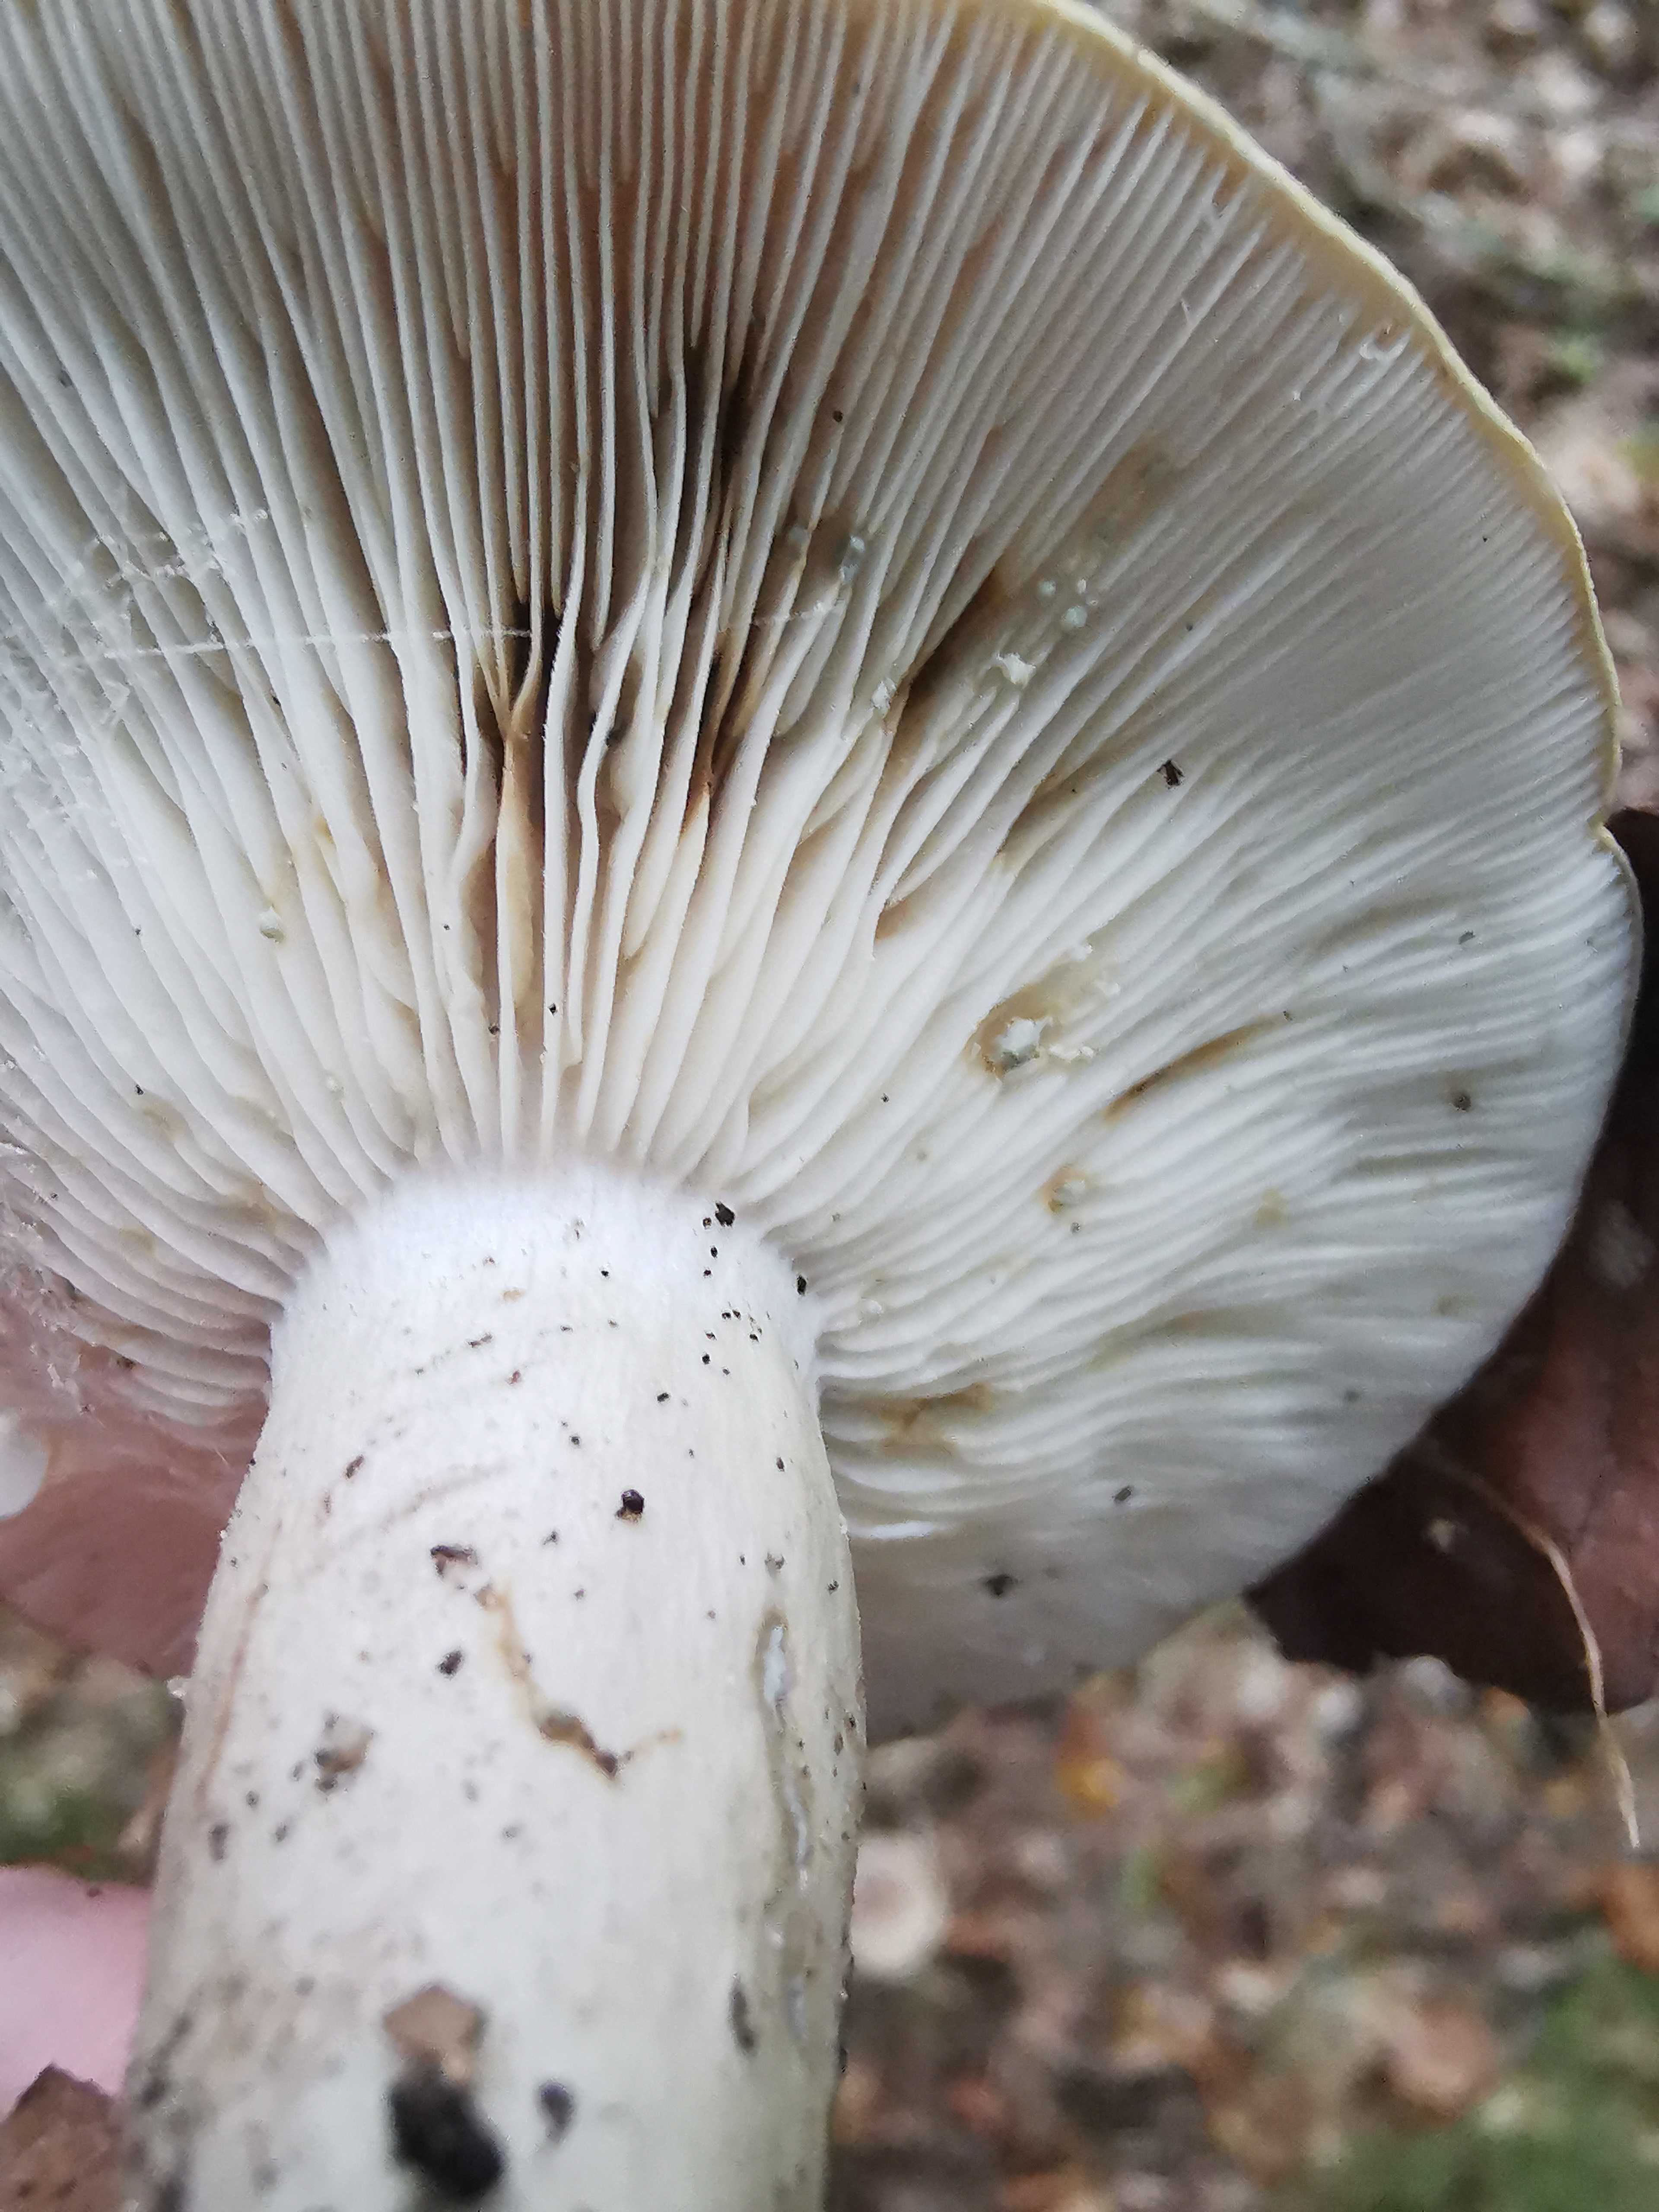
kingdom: Fungi
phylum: Basidiomycota
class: Agaricomycetes
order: Russulales
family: Russulaceae
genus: Lactarius
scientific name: Lactarius blennius
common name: dråbeplettet mælkehat
